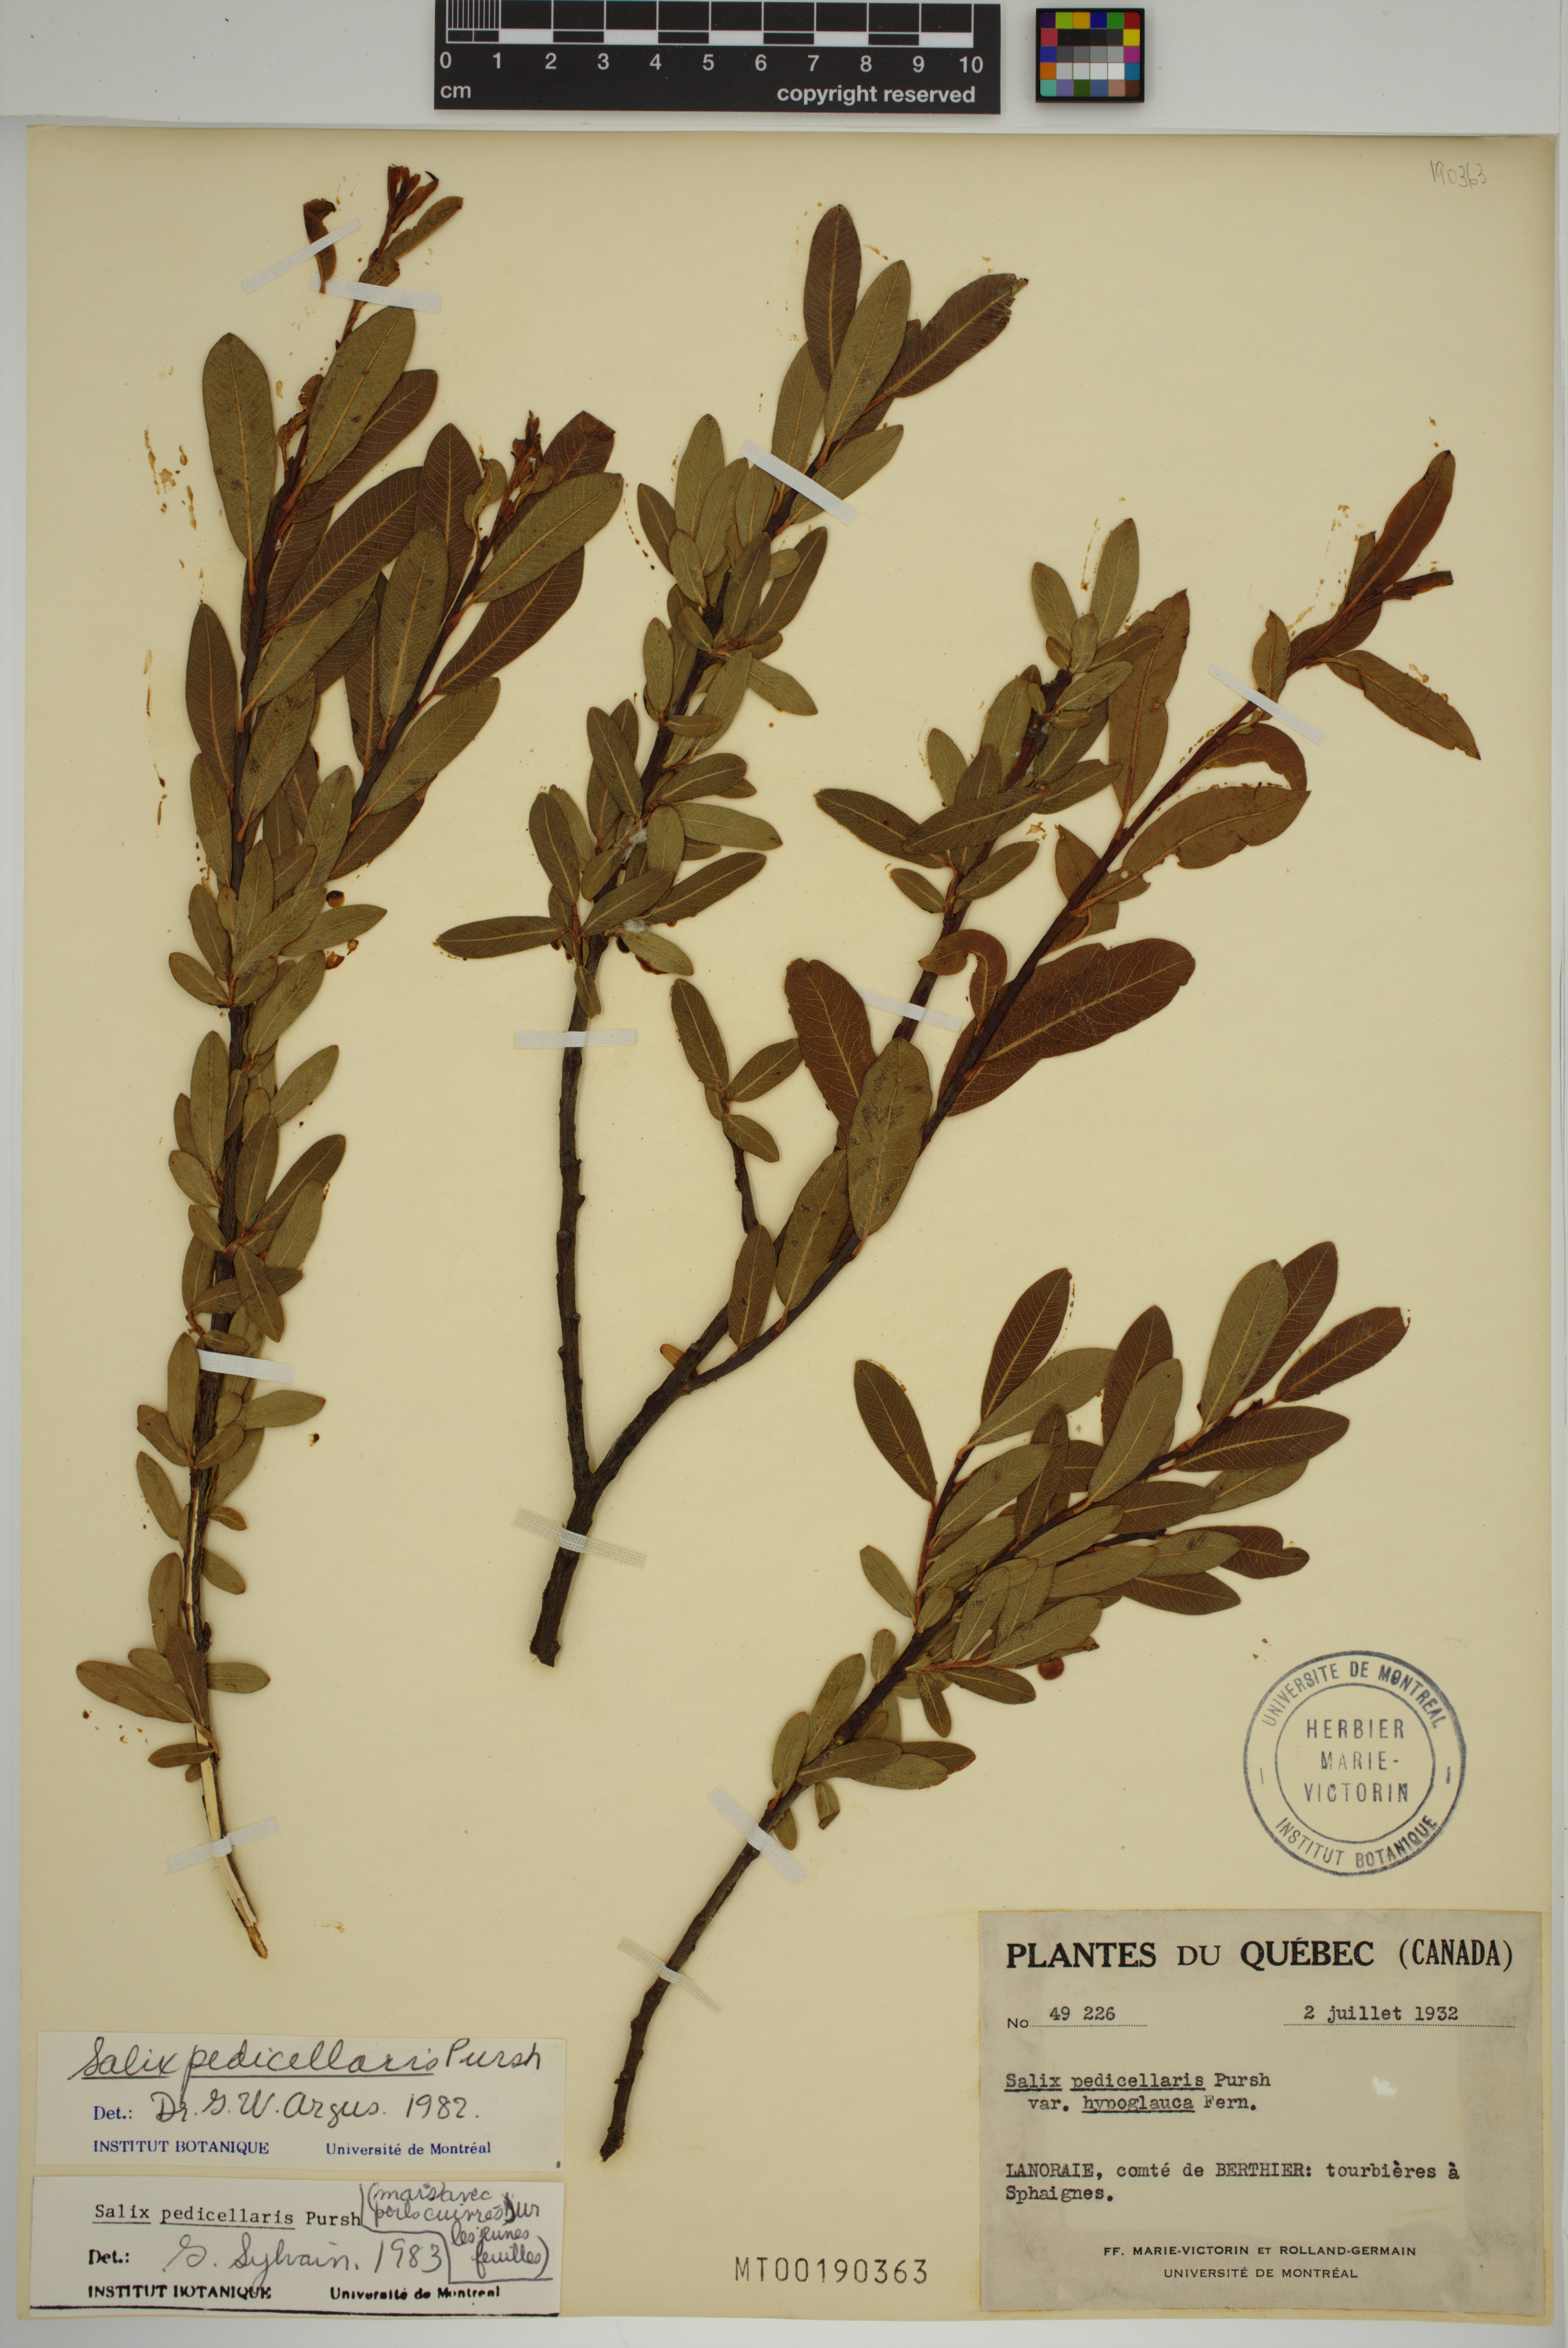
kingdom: Plantae
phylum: Tracheophyta
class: Magnoliopsida
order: Malpighiales
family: Salicaceae
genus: Salix
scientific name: Salix pedicellaris
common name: Bog willow
